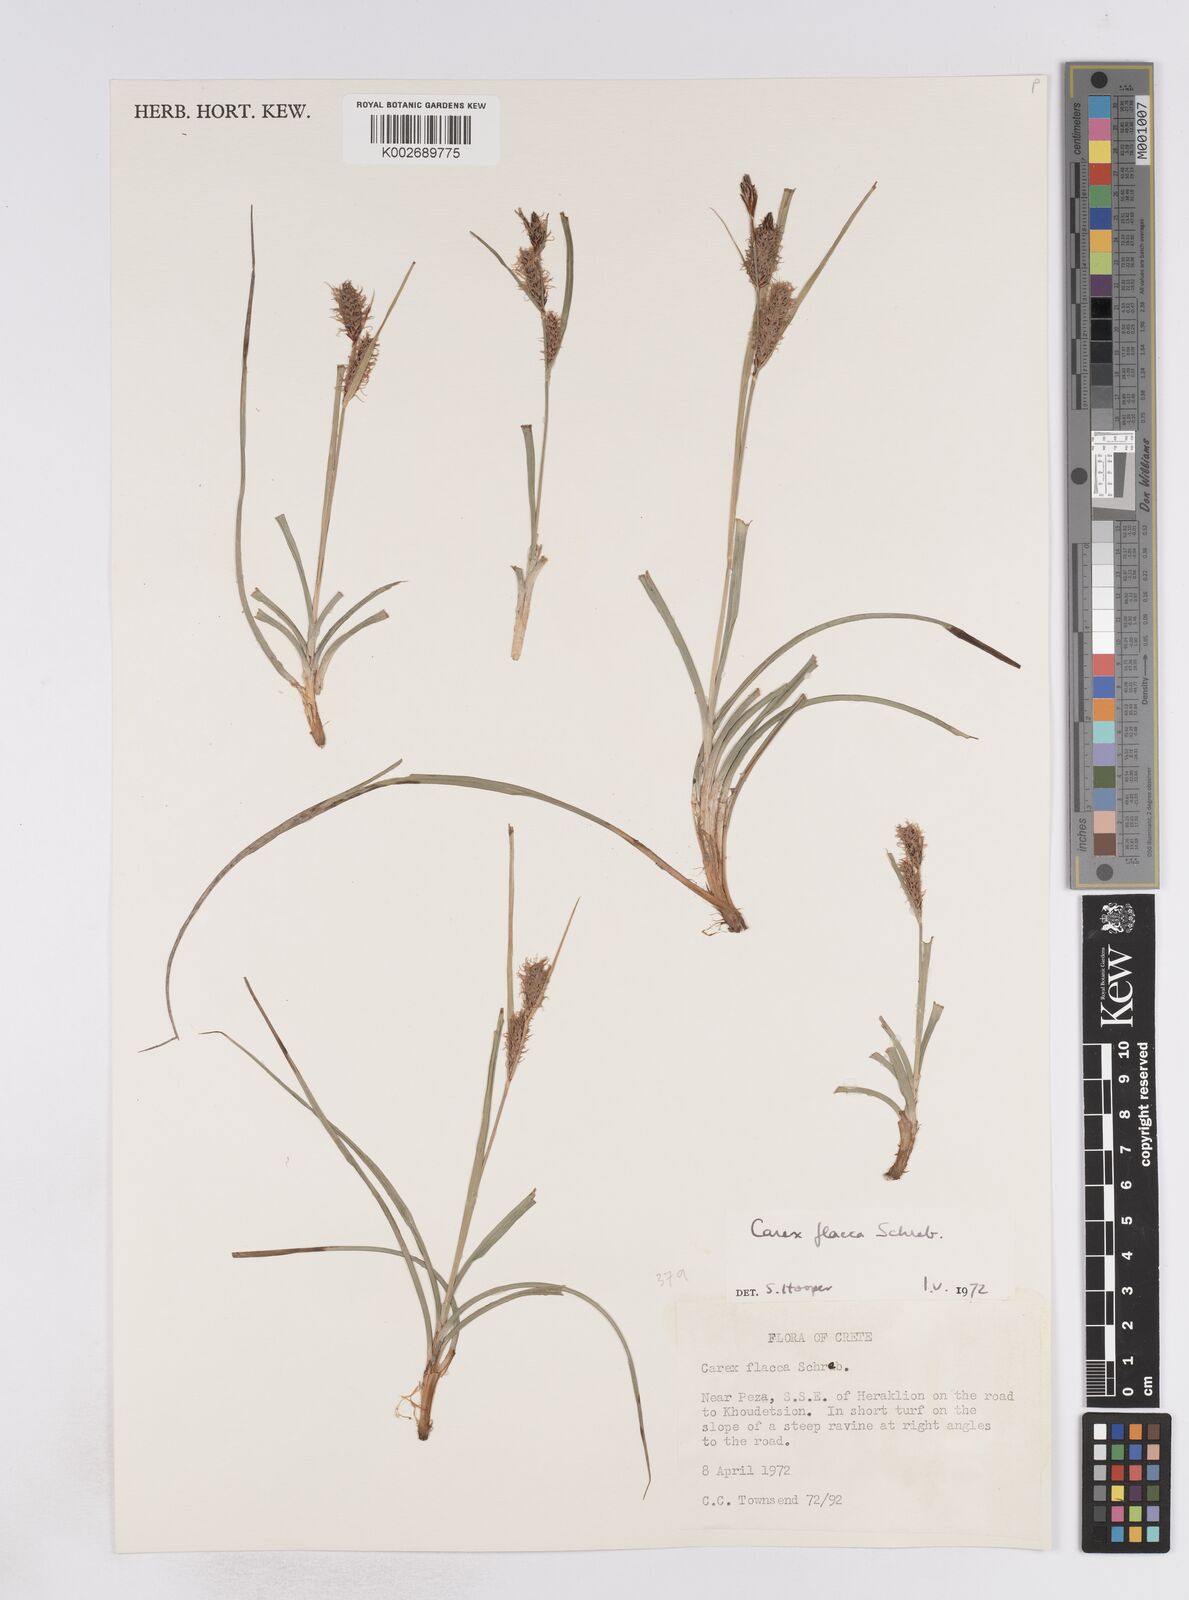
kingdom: Plantae
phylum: Tracheophyta
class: Liliopsida
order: Poales
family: Cyperaceae
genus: Carex
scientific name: Carex flacca
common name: Glaucous sedge
